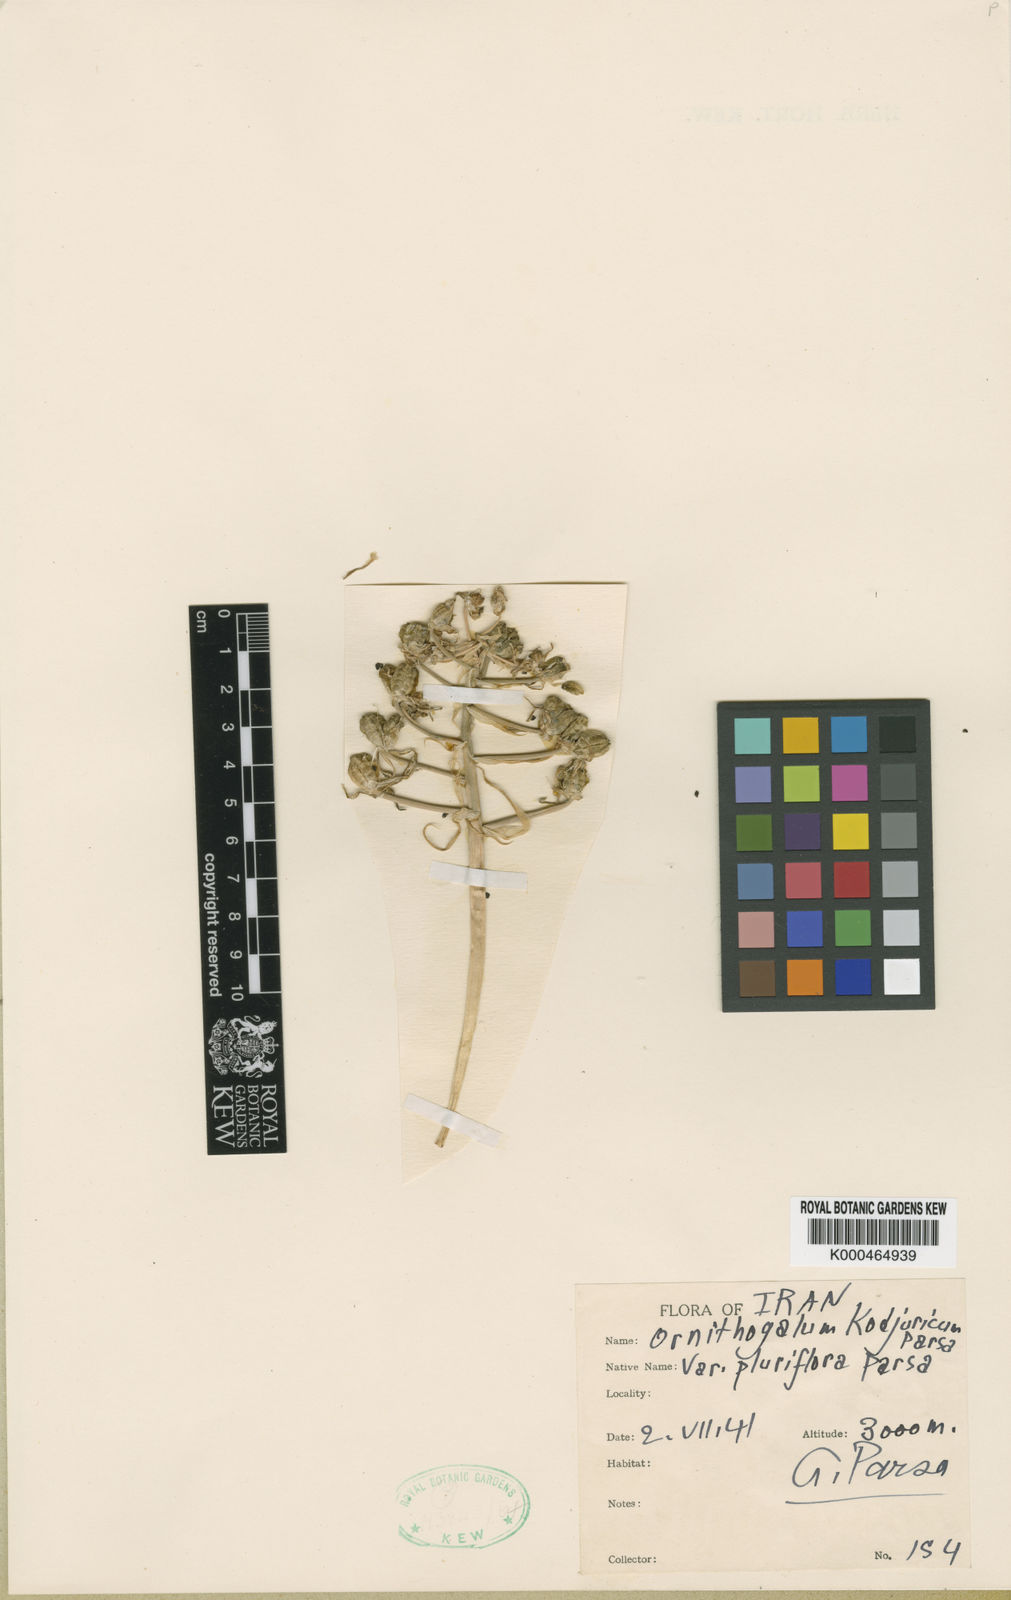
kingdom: Plantae
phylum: Tracheophyta
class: Liliopsida
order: Asparagales
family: Asparagaceae
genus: Ornithogalum
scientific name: Ornithogalum
